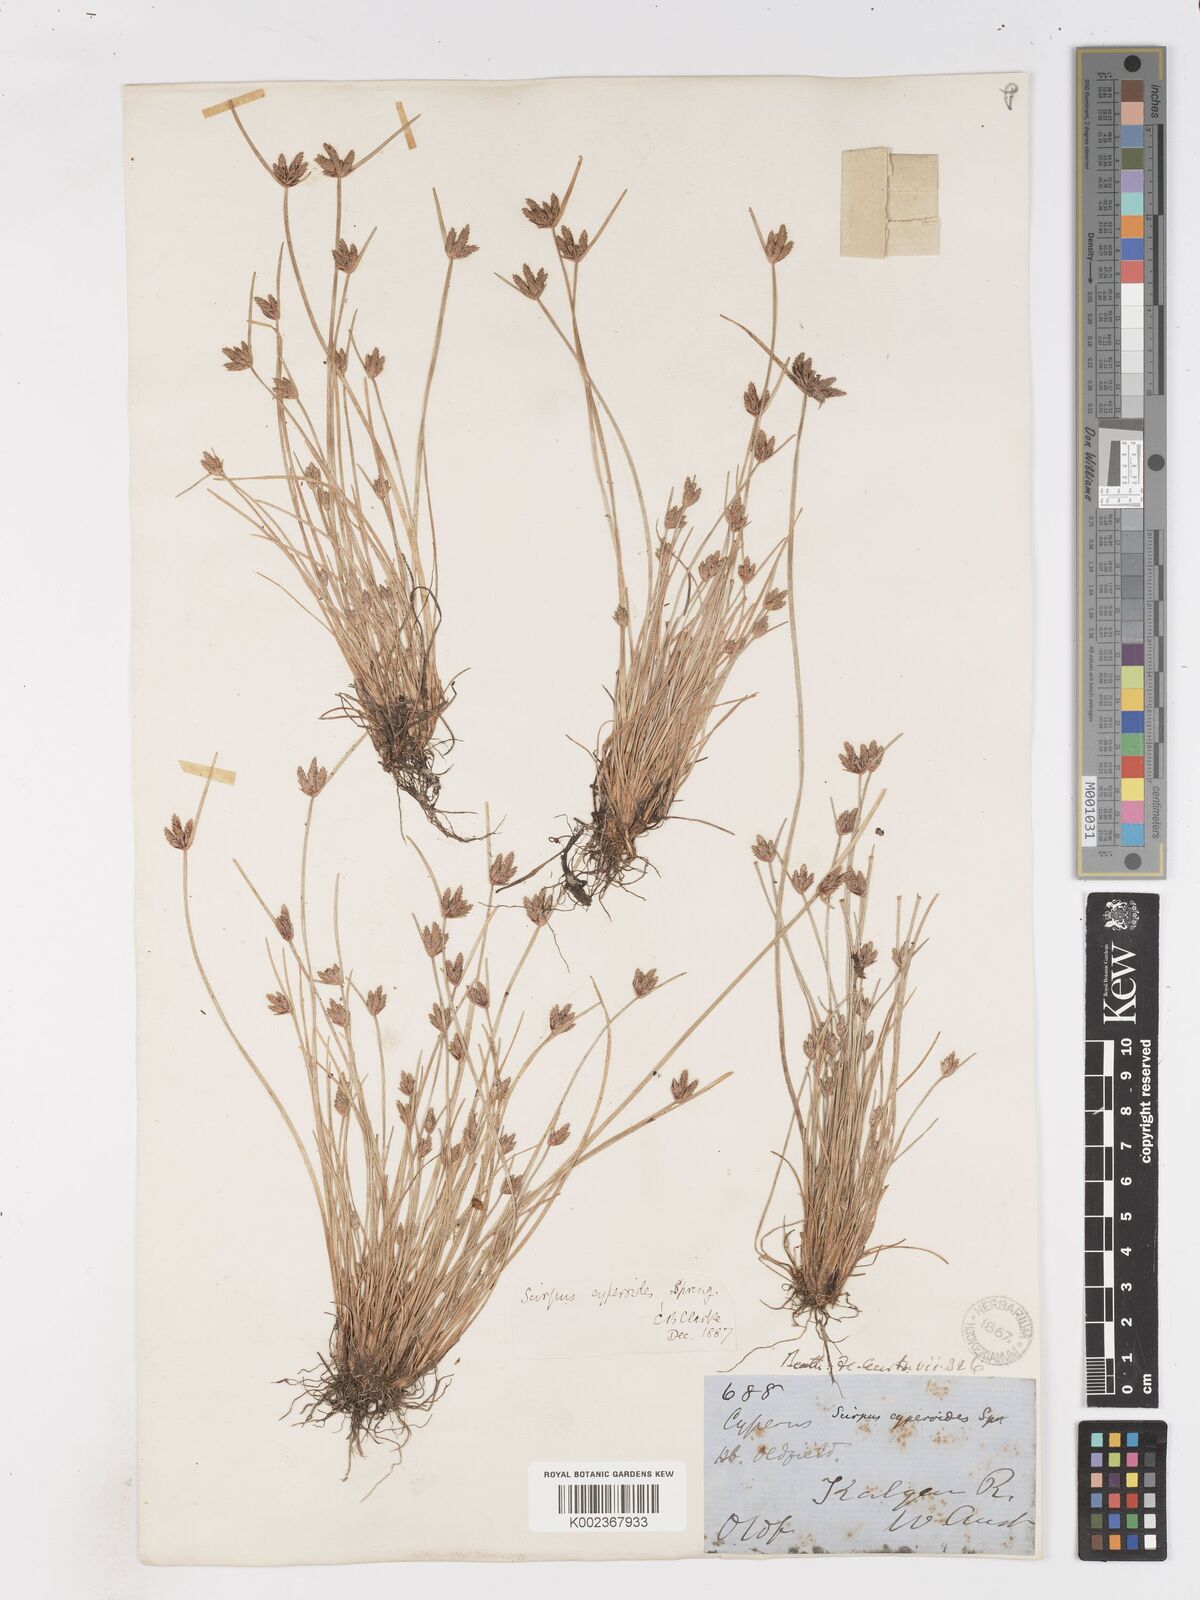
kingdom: Plantae
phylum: Tracheophyta
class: Liliopsida
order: Poales
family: Cyperaceae
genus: Isolepis
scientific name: Isolepis cyperoides
